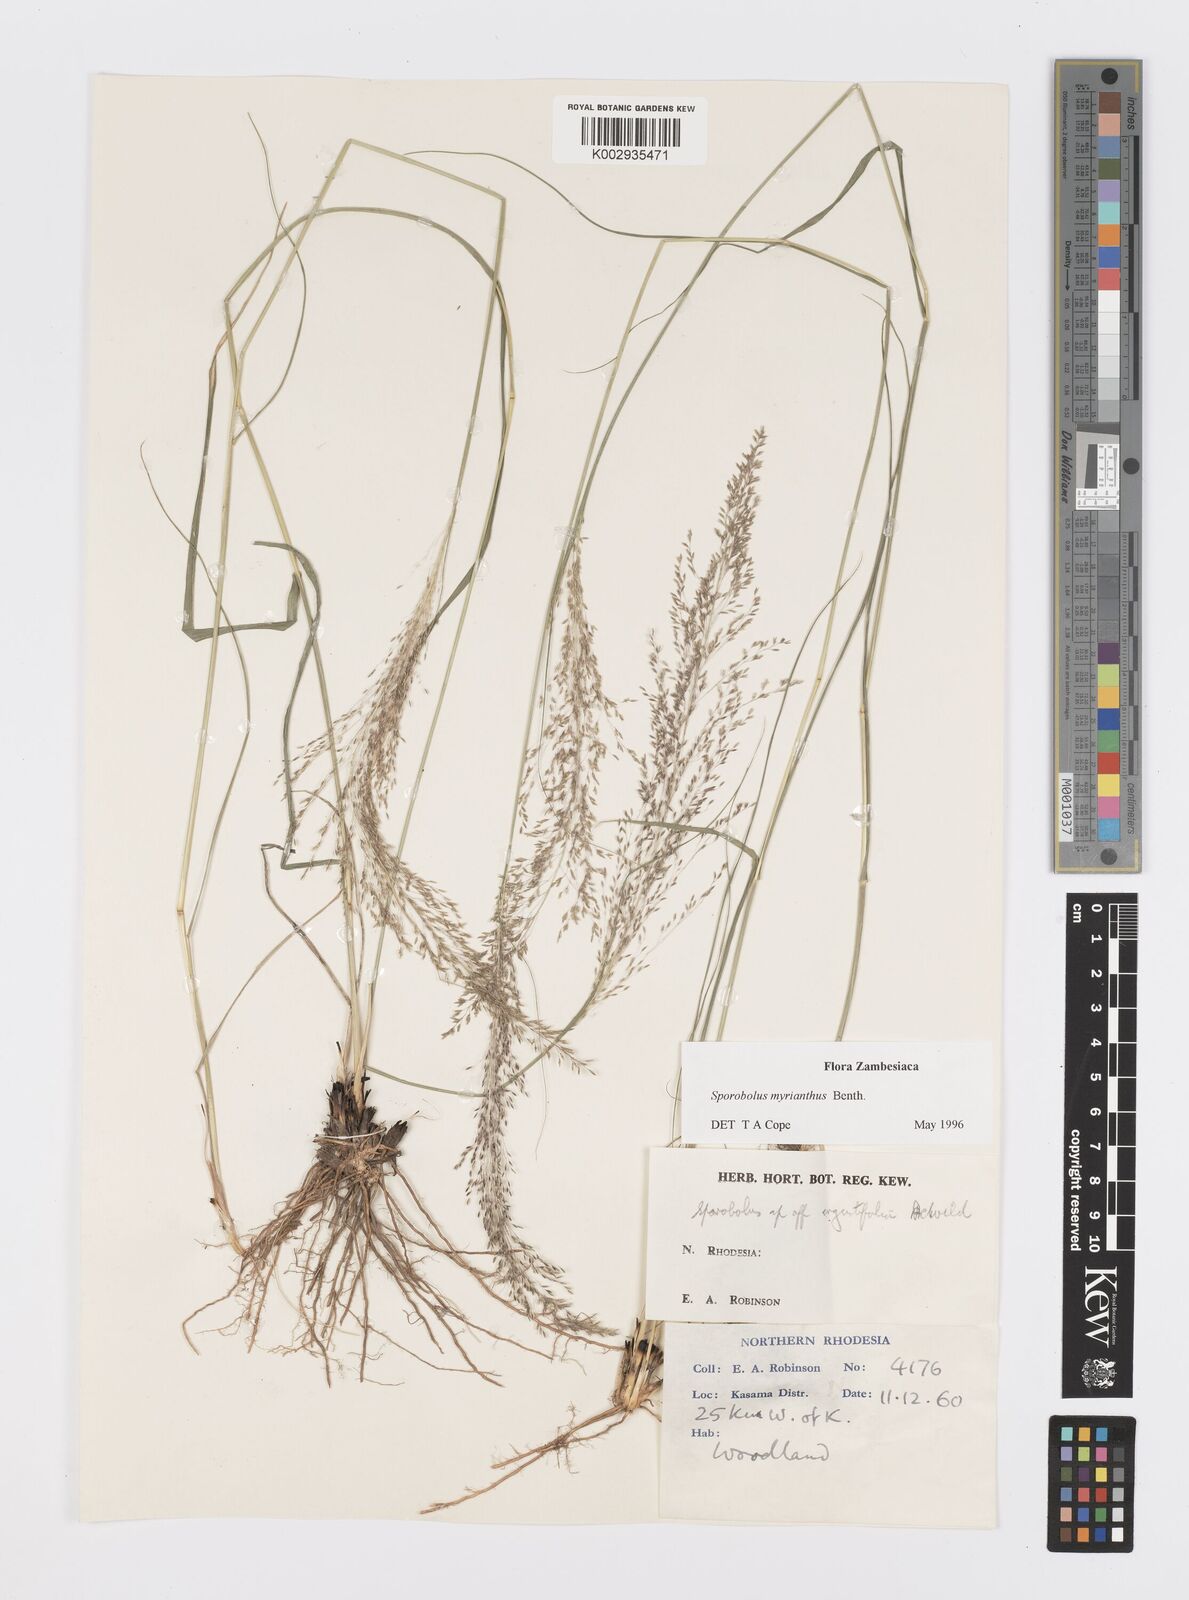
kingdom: Plantae
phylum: Tracheophyta
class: Liliopsida
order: Poales
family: Poaceae
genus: Sporobolus
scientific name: Sporobolus myrianthus
